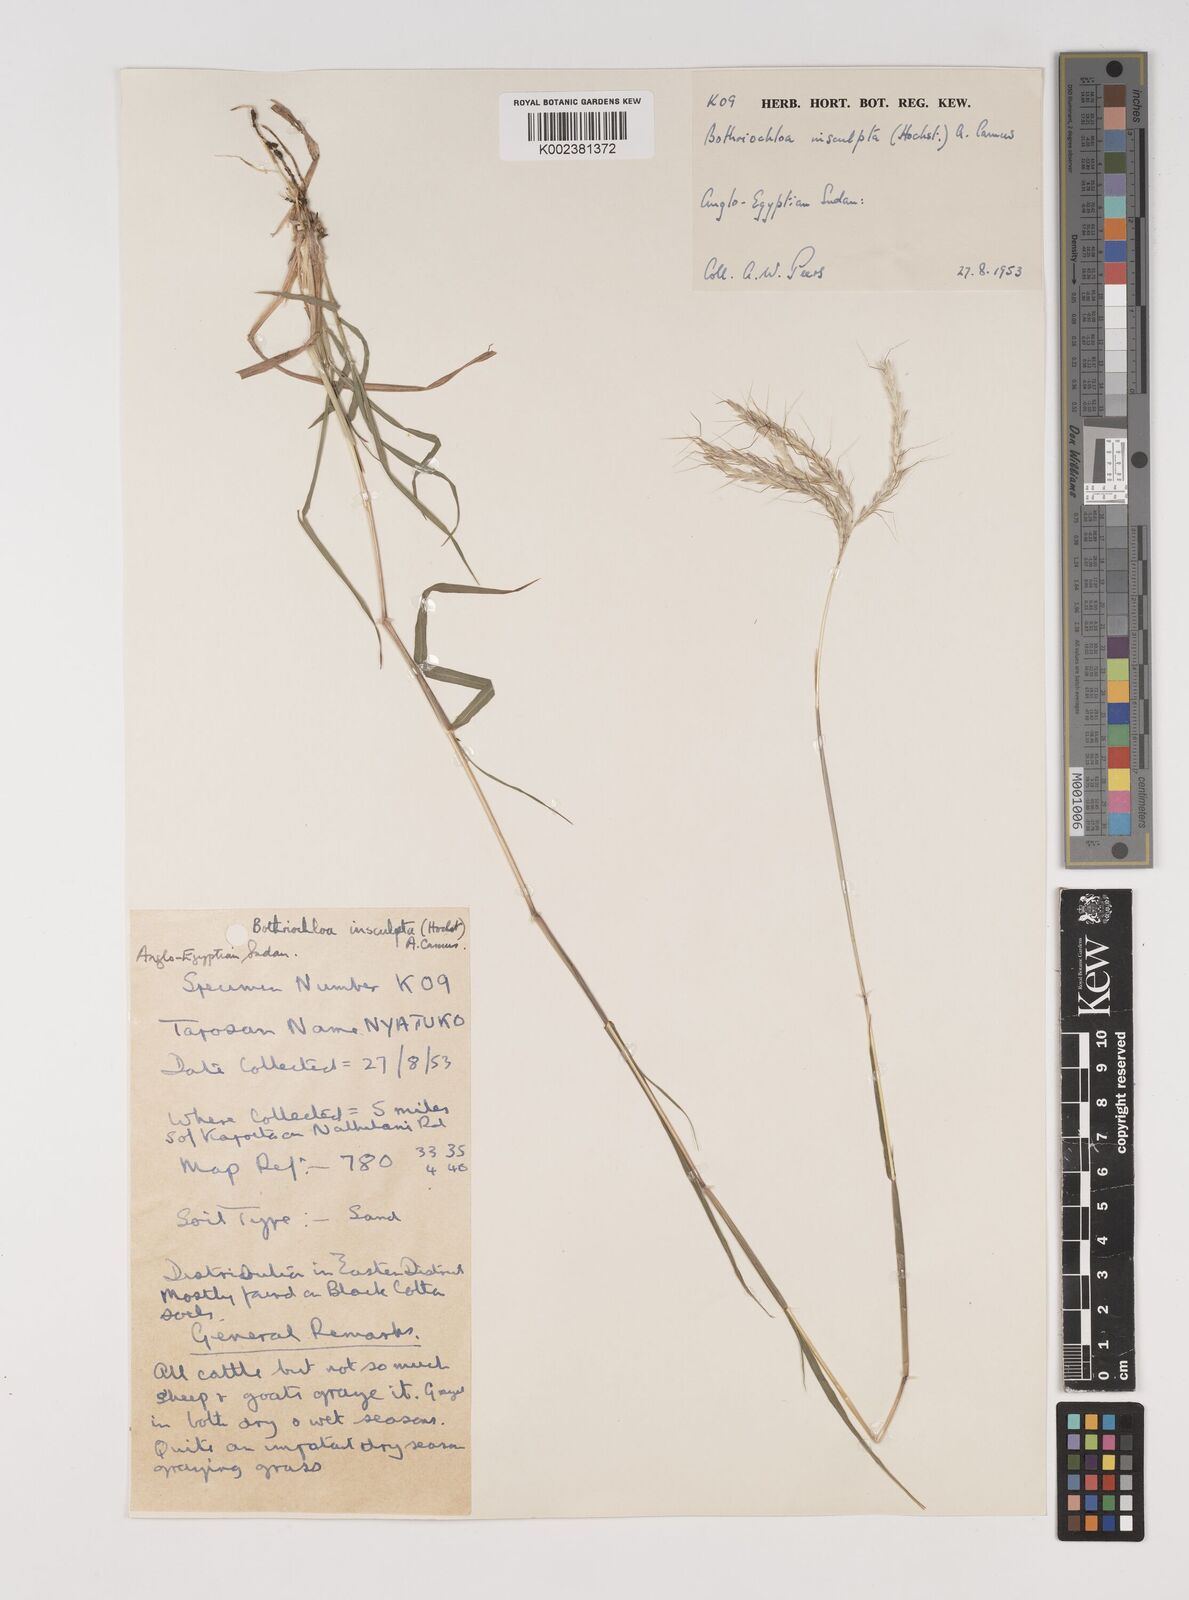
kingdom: Plantae
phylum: Tracheophyta
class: Liliopsida
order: Poales
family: Poaceae
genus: Bothriochloa
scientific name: Bothriochloa insculpta
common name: Creeping-bluegrass
